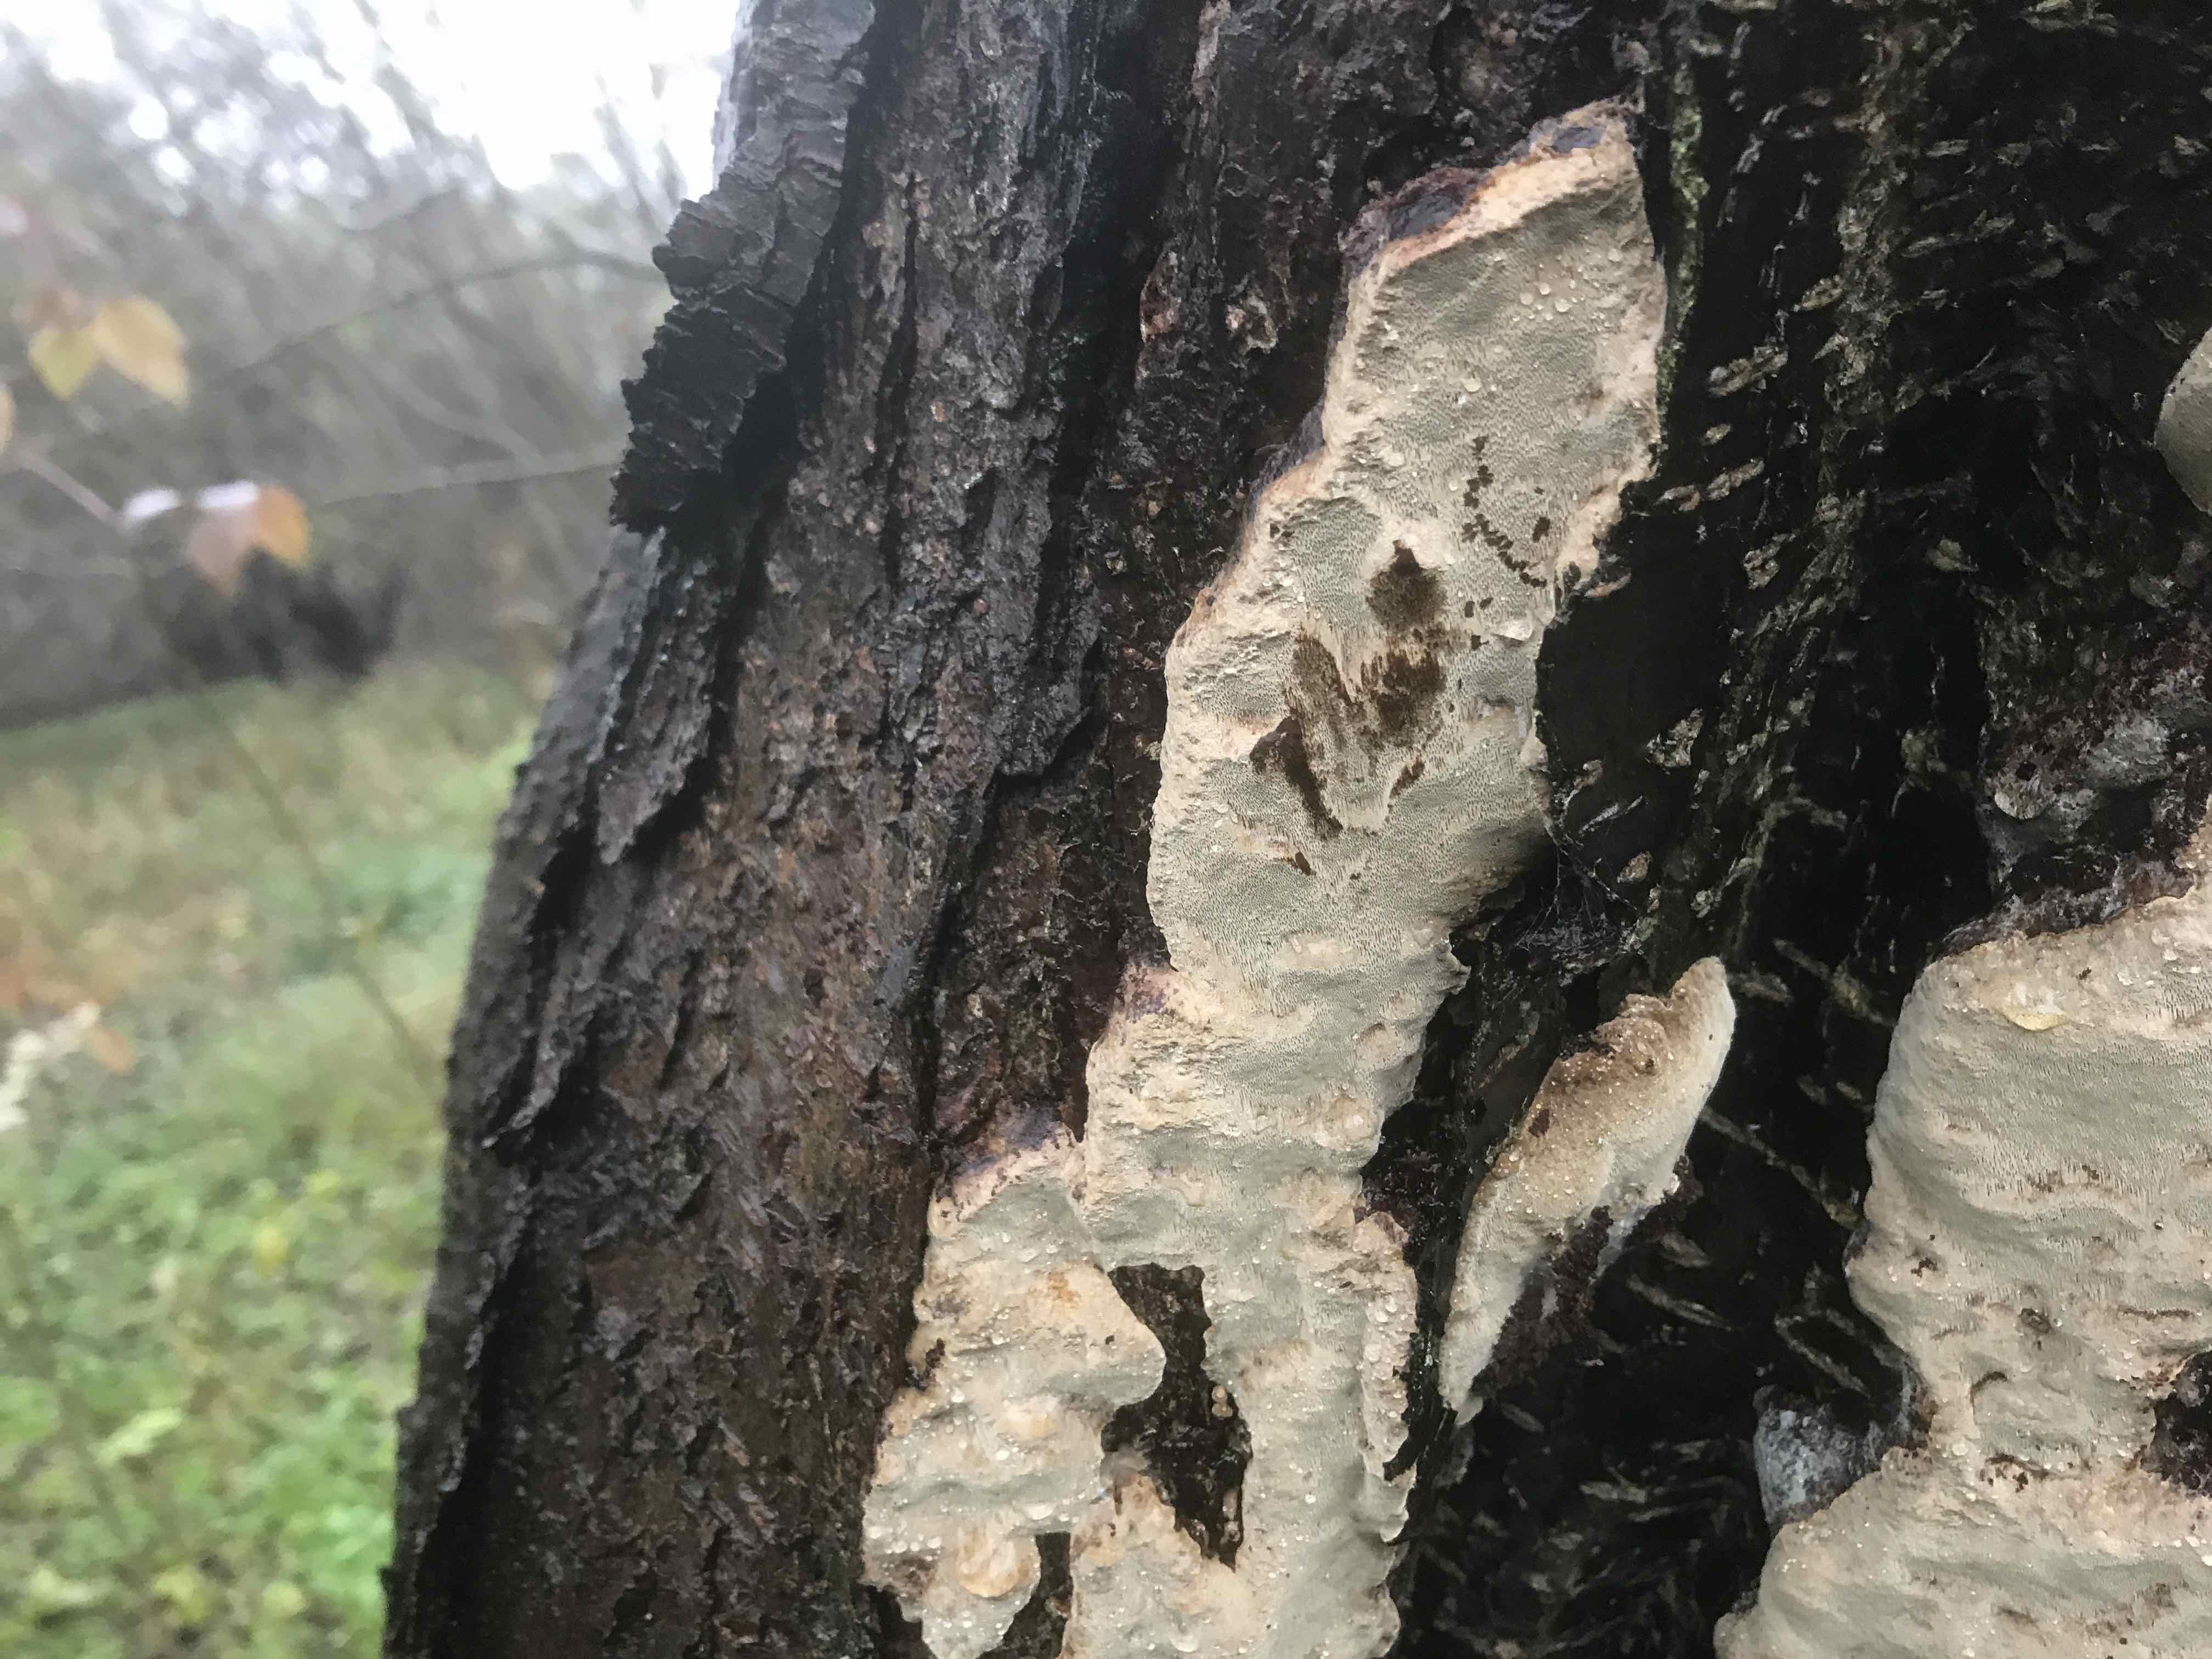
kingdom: Fungi
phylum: Basidiomycota
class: Agaricomycetes
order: Hymenochaetales
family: Hymenochaetaceae
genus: Phellinus
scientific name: Phellinus pomaceus
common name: blomme-ildporesvamp
